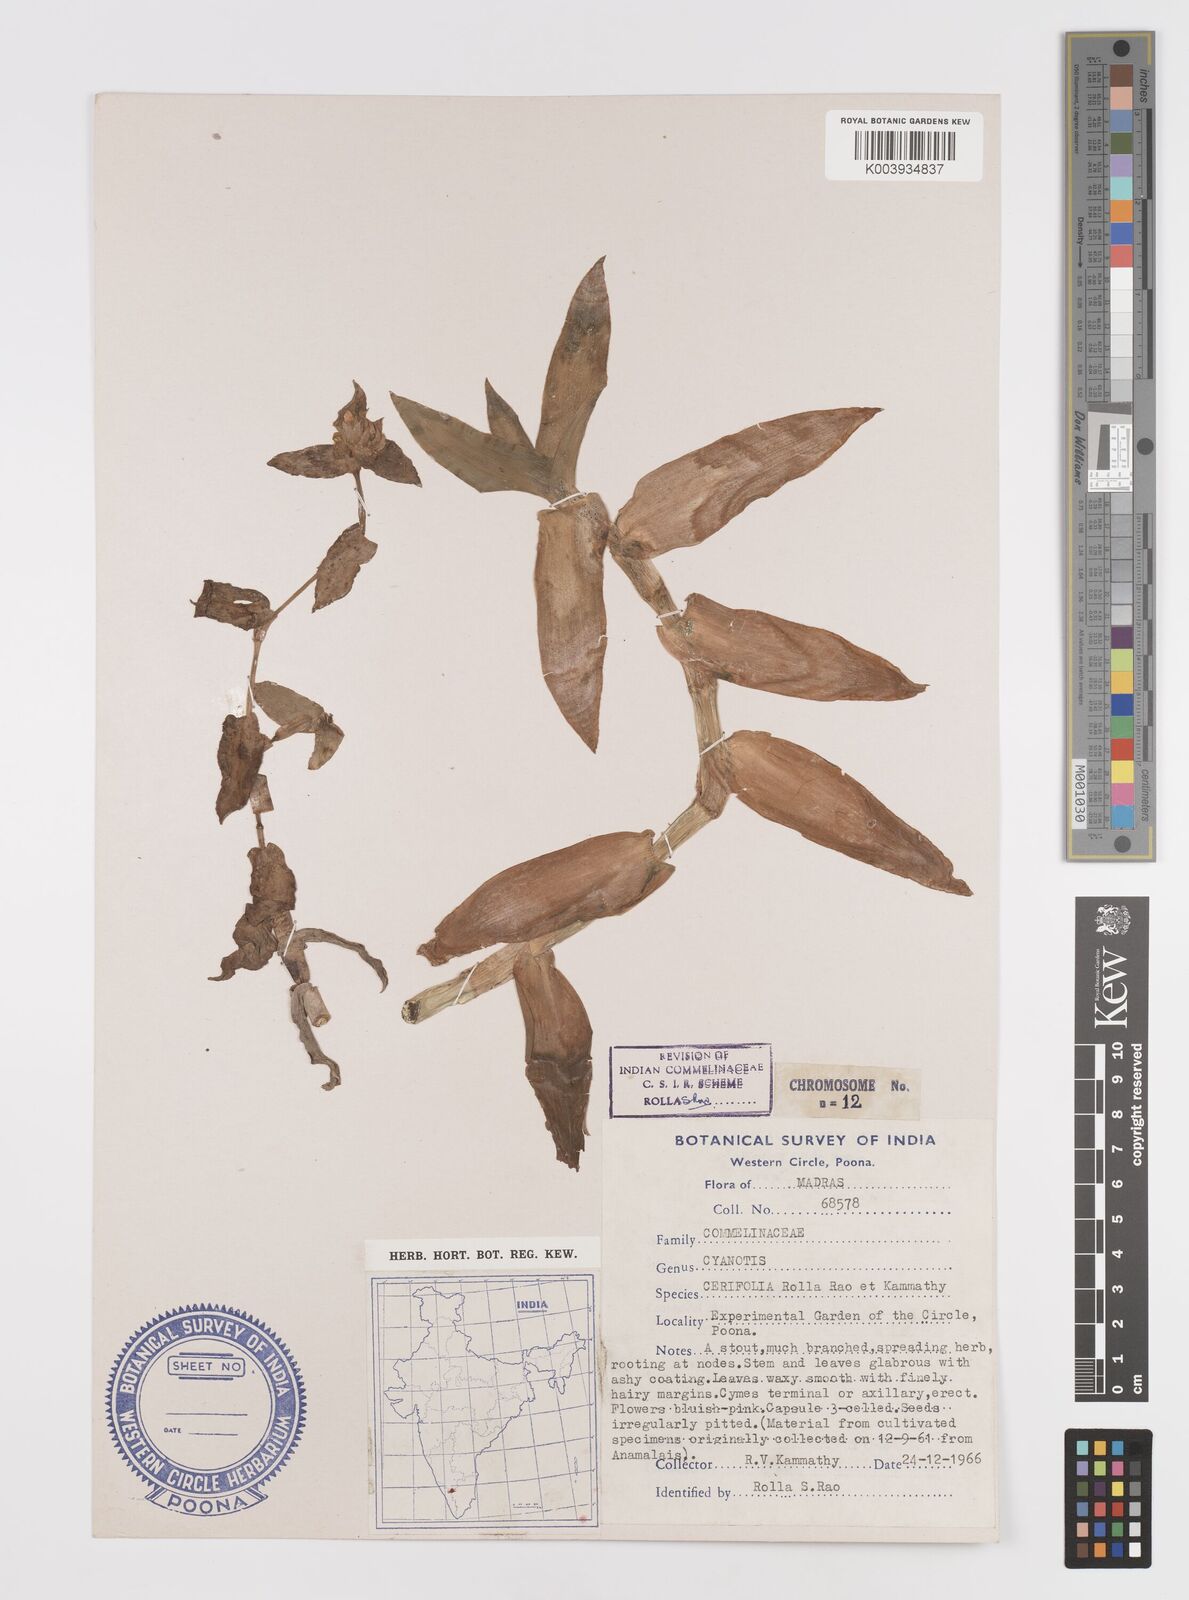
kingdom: Plantae
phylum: Tracheophyta
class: Liliopsida
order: Commelinales
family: Commelinaceae
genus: Cyanotis
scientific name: Cyanotis villosa
